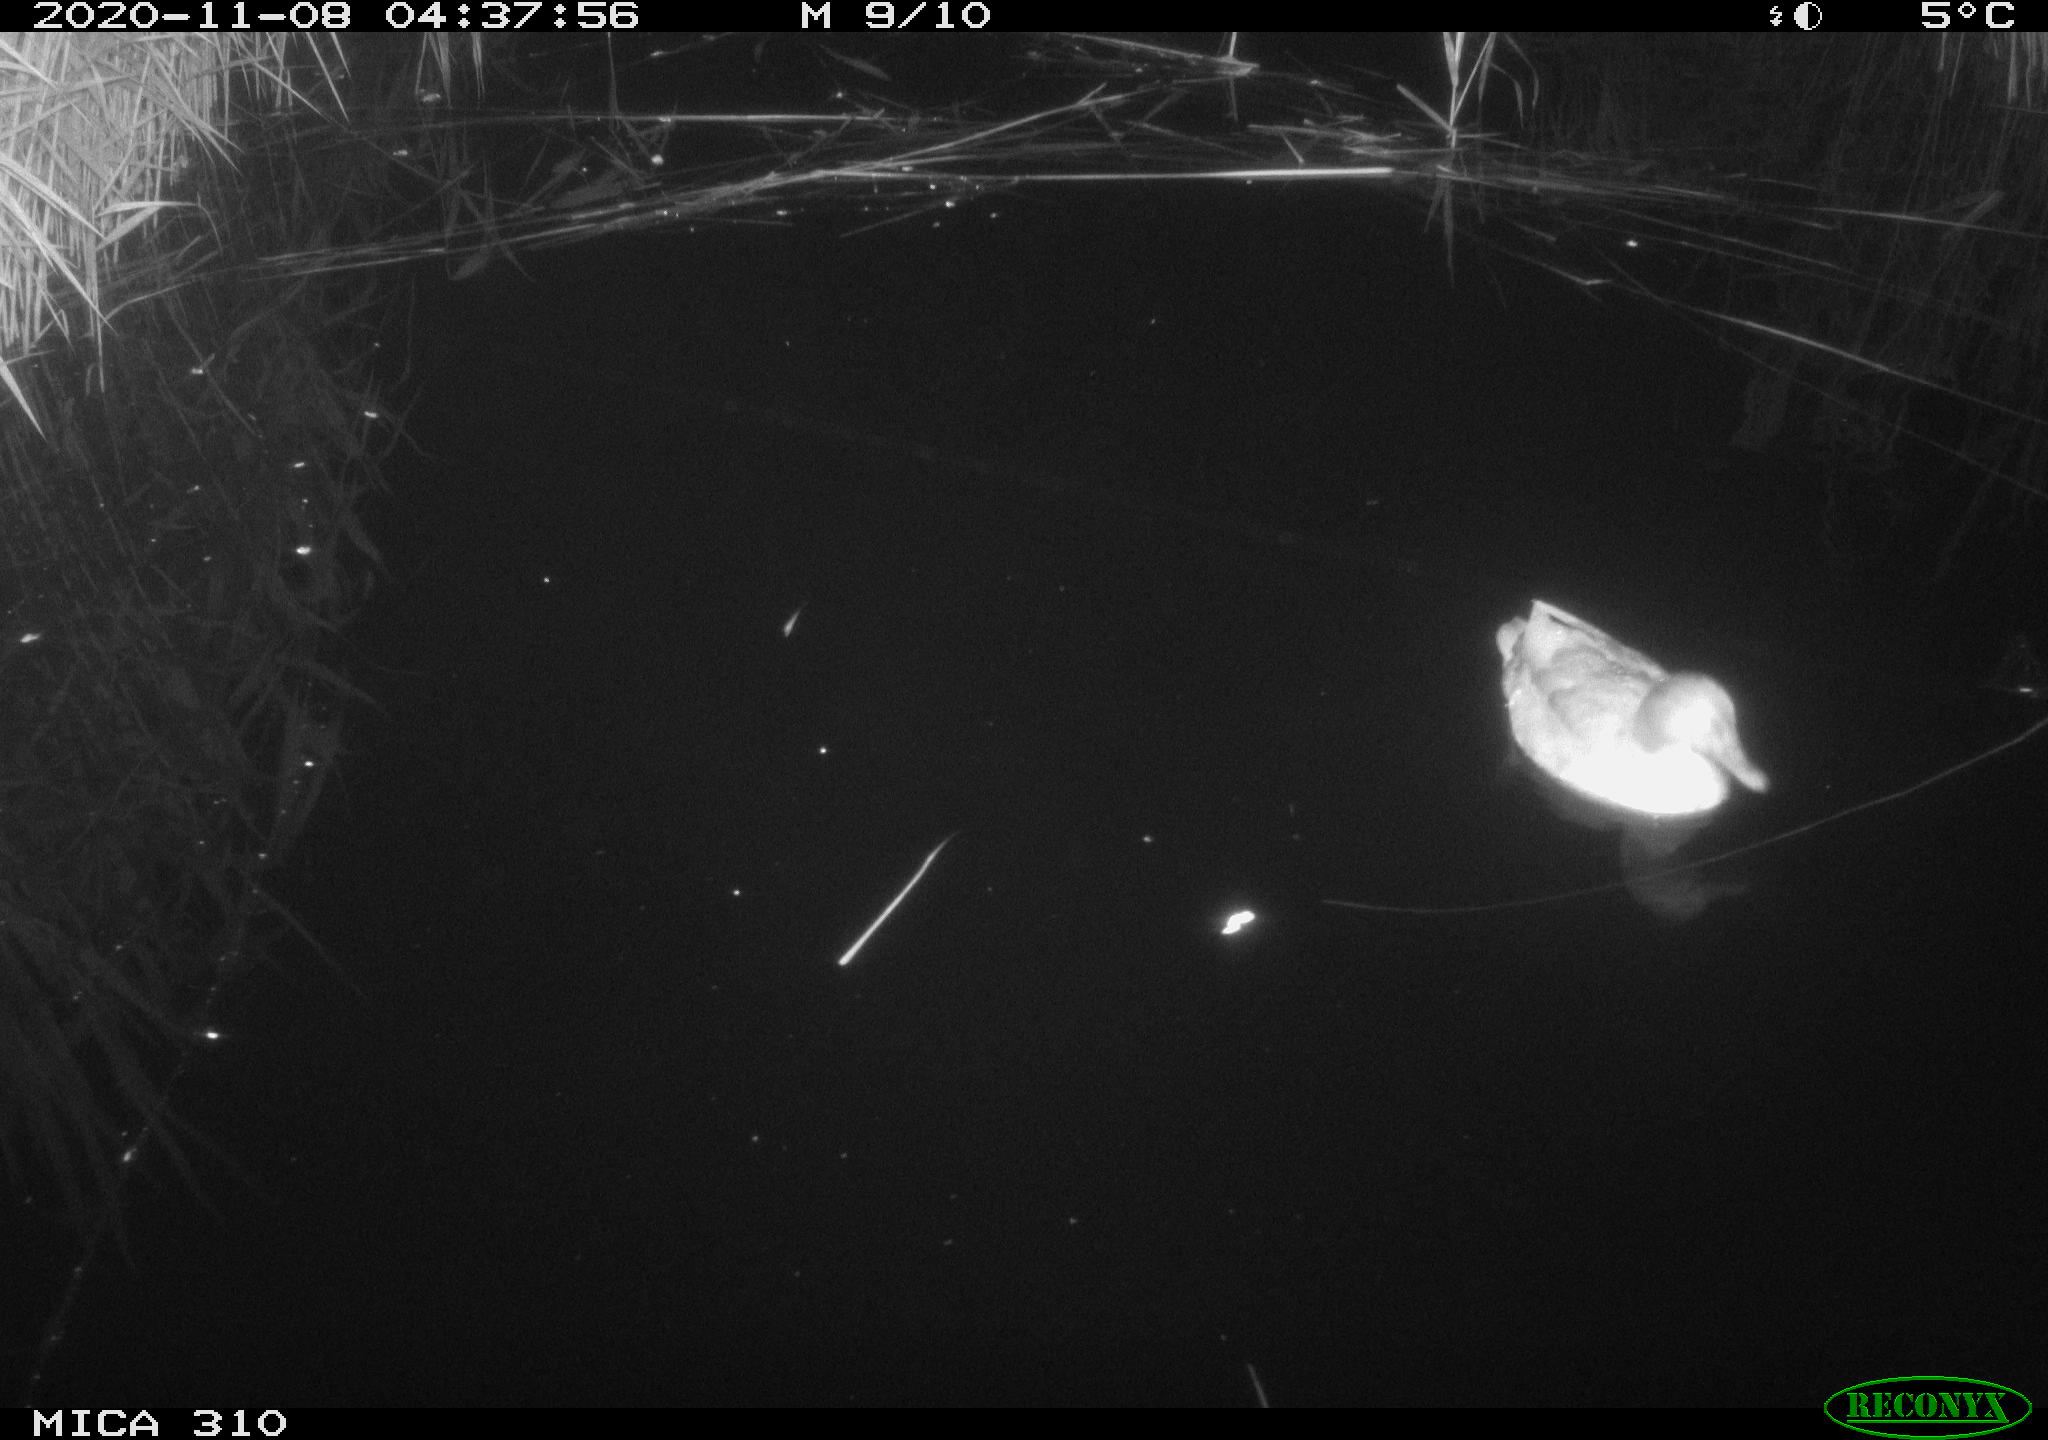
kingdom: Animalia
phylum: Chordata
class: Aves
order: Anseriformes
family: Anatidae
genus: Anas
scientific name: Anas platyrhynchos
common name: Mallard
